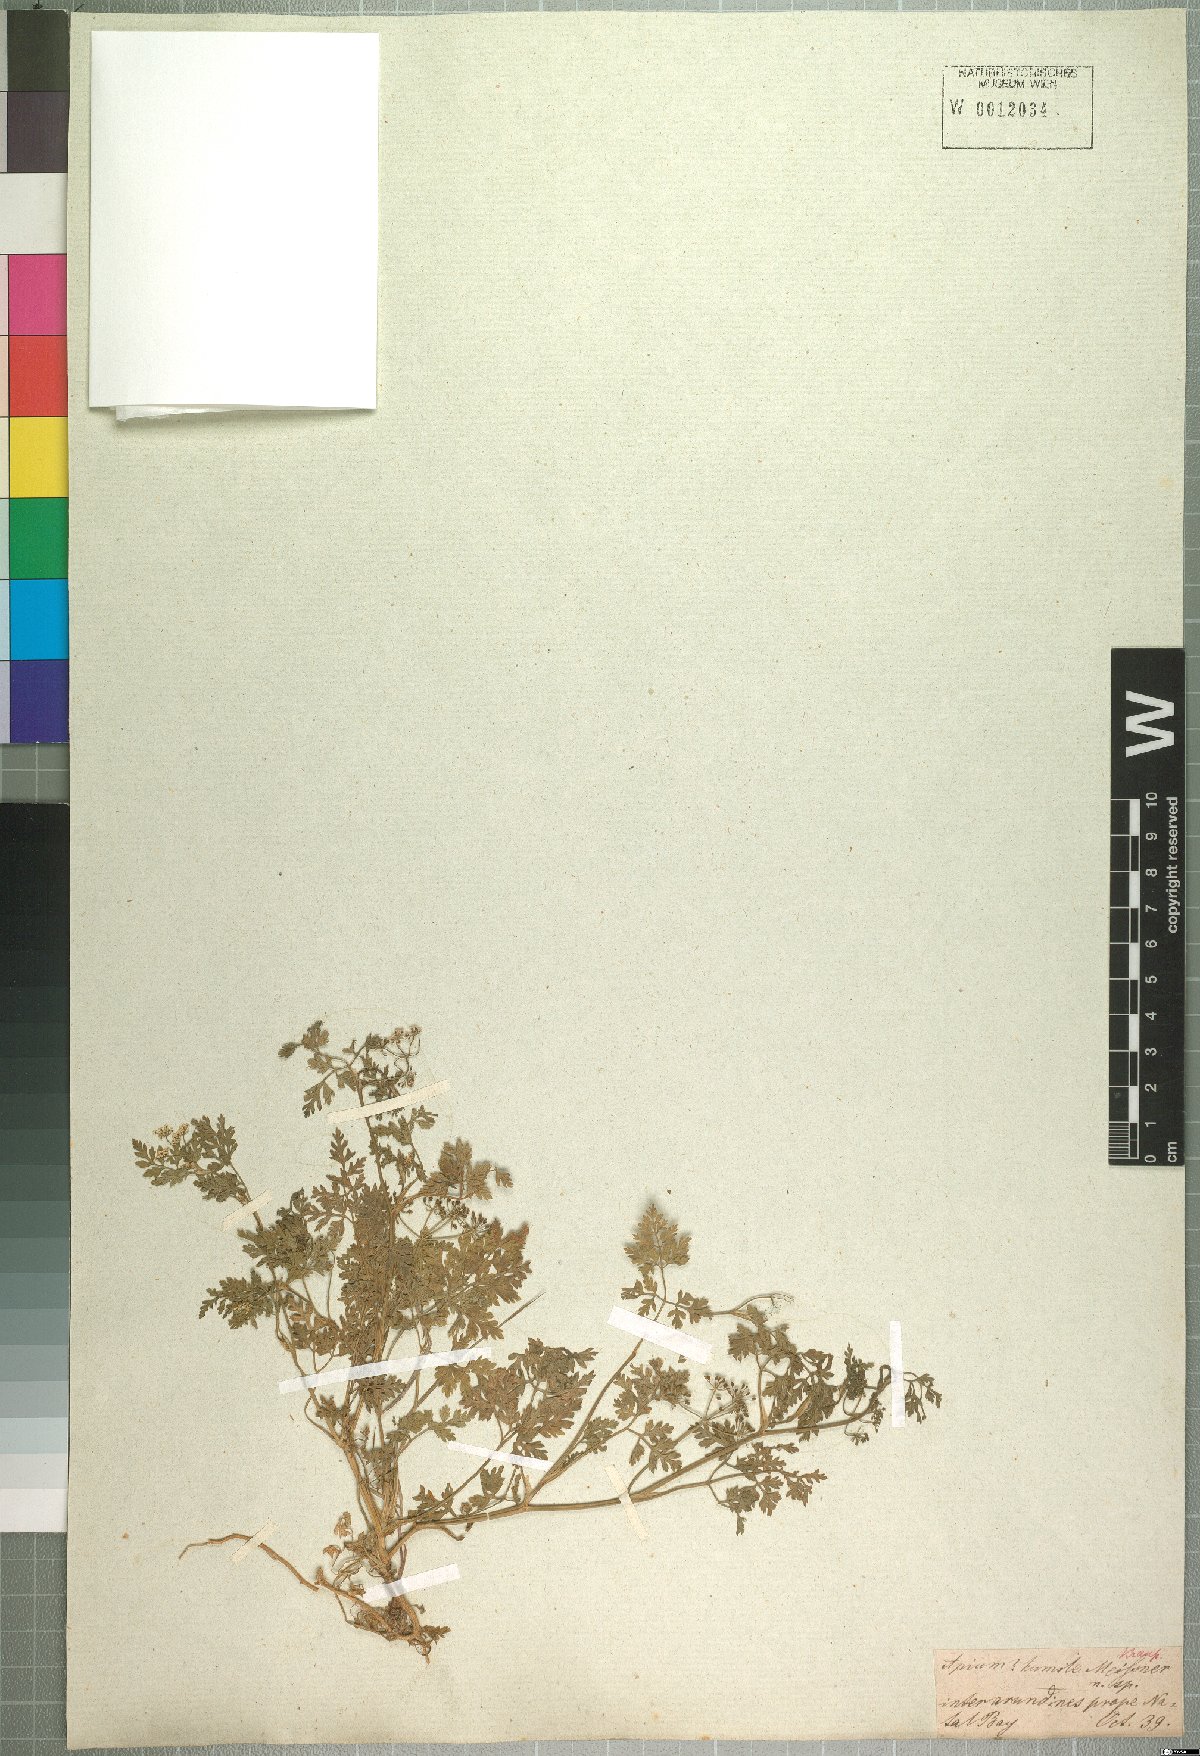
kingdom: Plantae
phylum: Tracheophyta
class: Magnoliopsida
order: Apiales
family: Apiaceae
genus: Dasispermum
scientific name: Dasispermum humile
